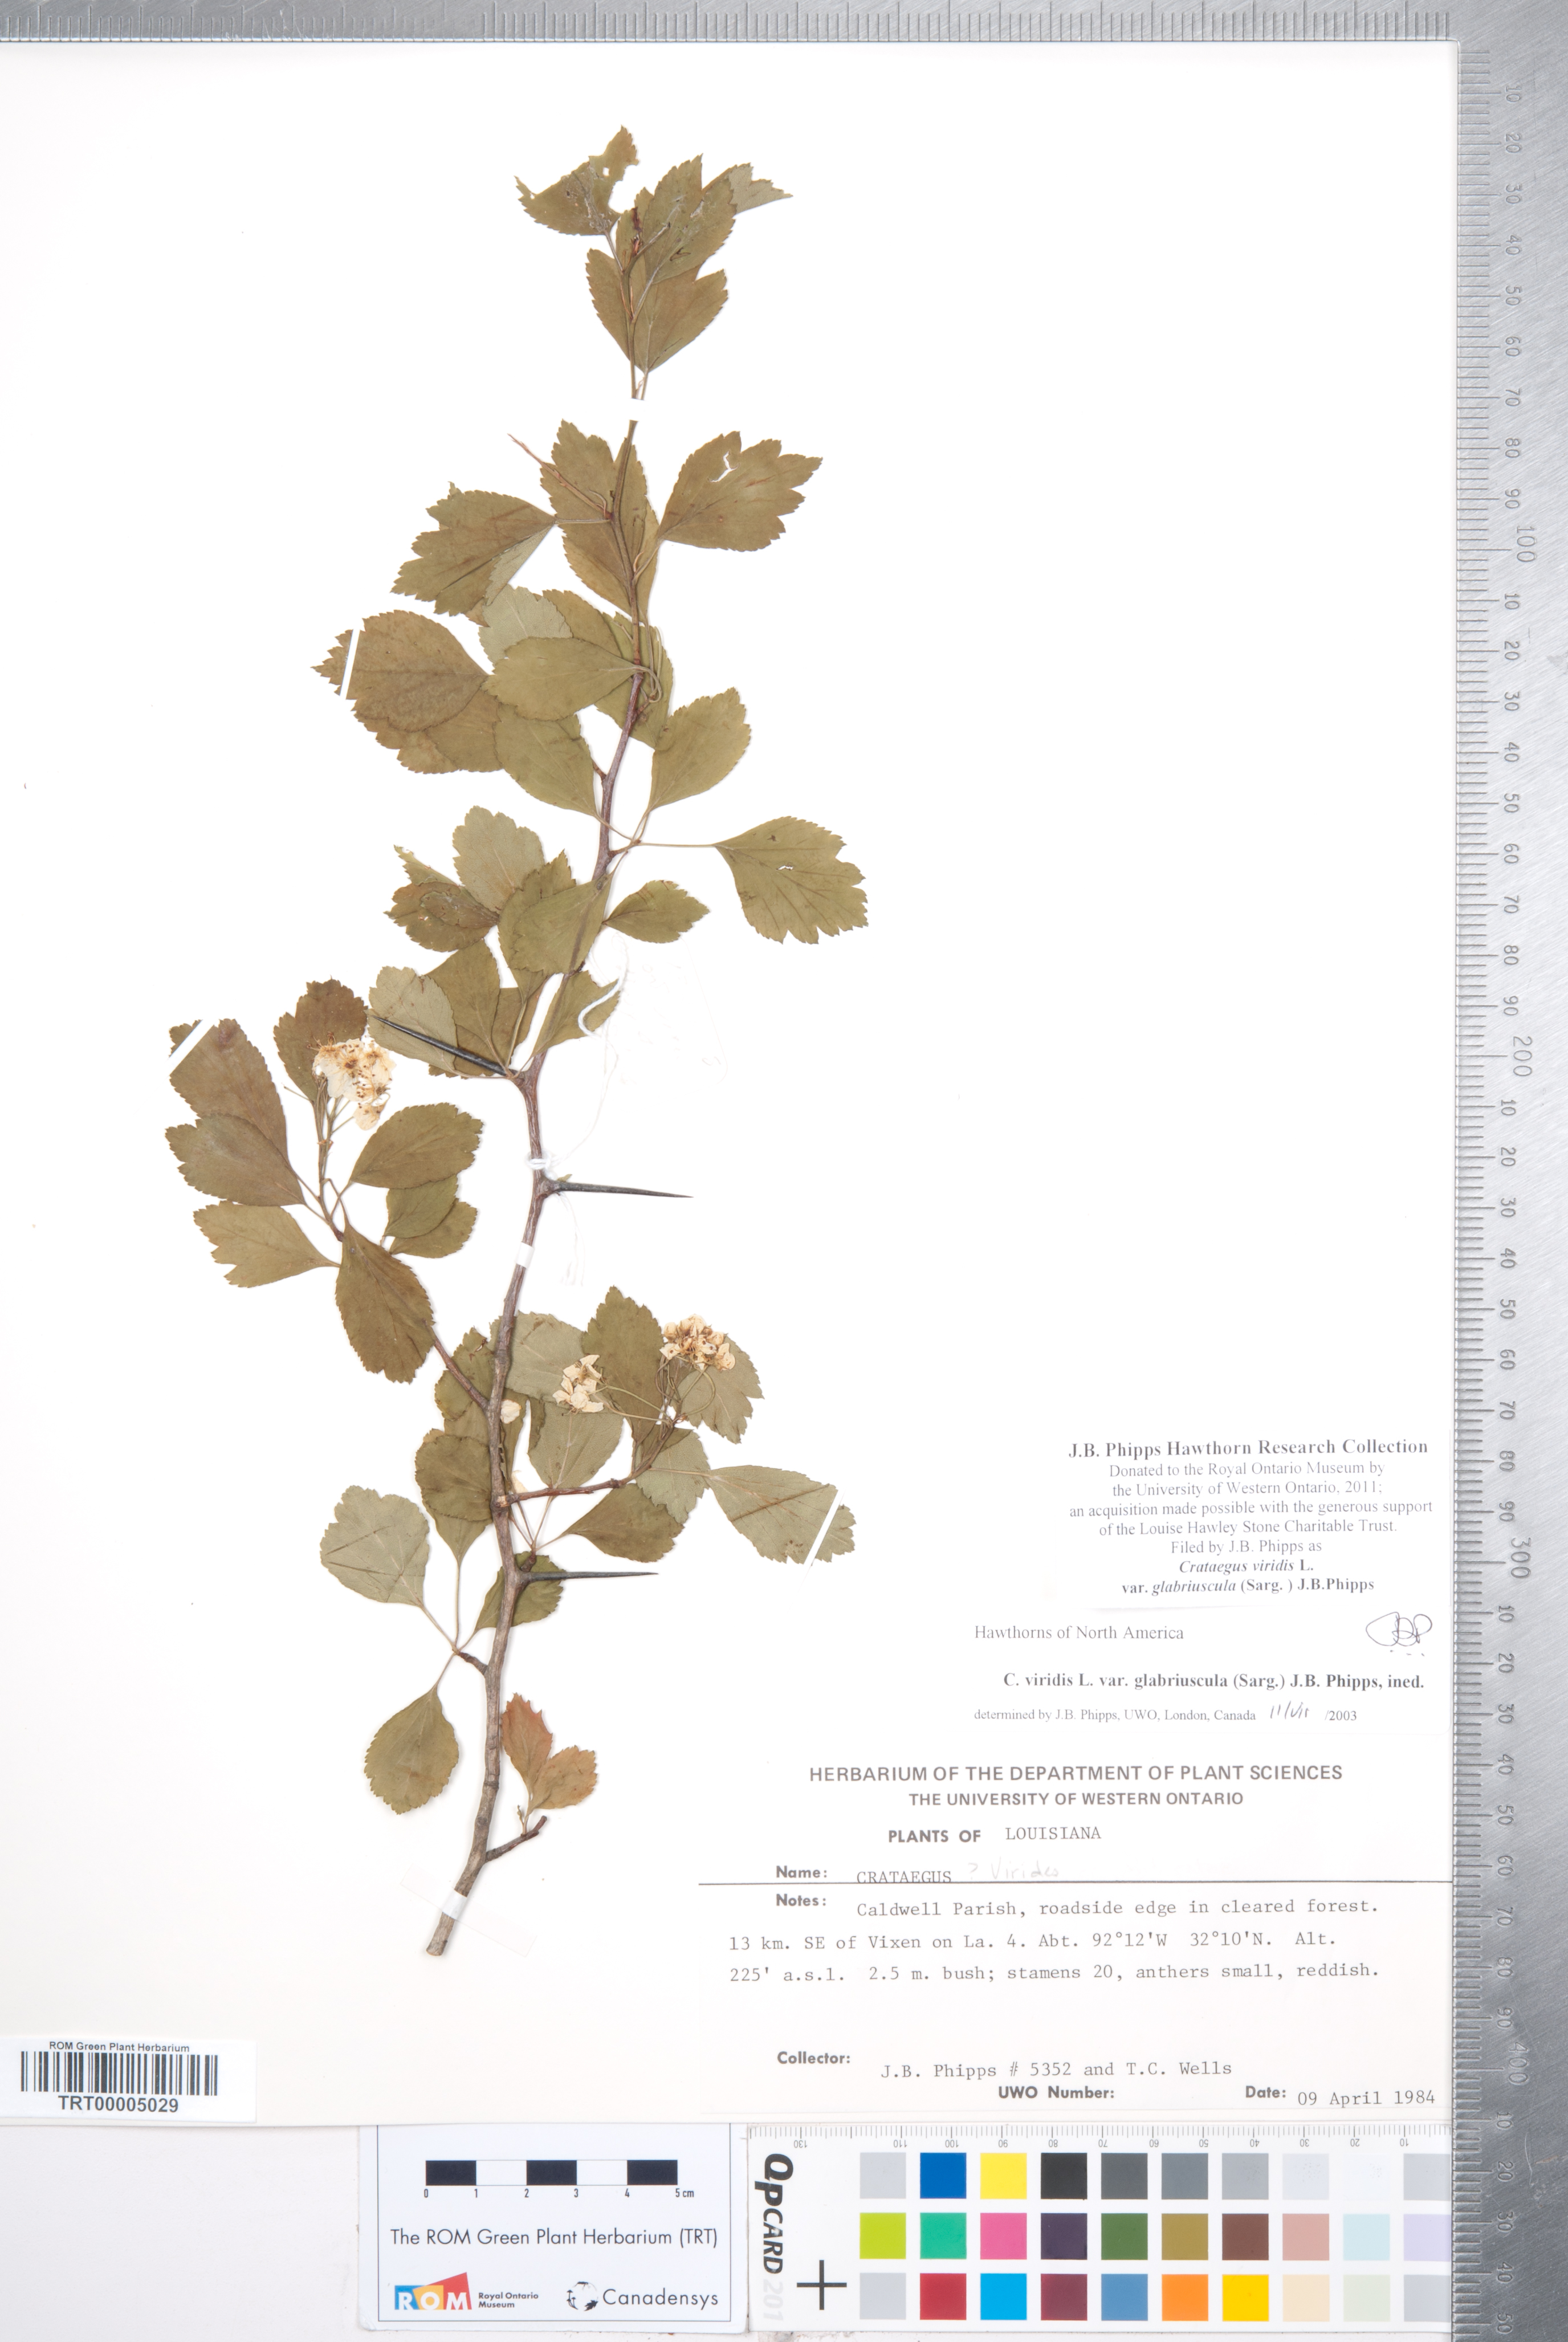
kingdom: Plantae
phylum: Tracheophyta
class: Magnoliopsida
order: Rosales
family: Rosaceae
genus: Crataegus
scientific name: Crataegus viridis
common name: Southernthorn
